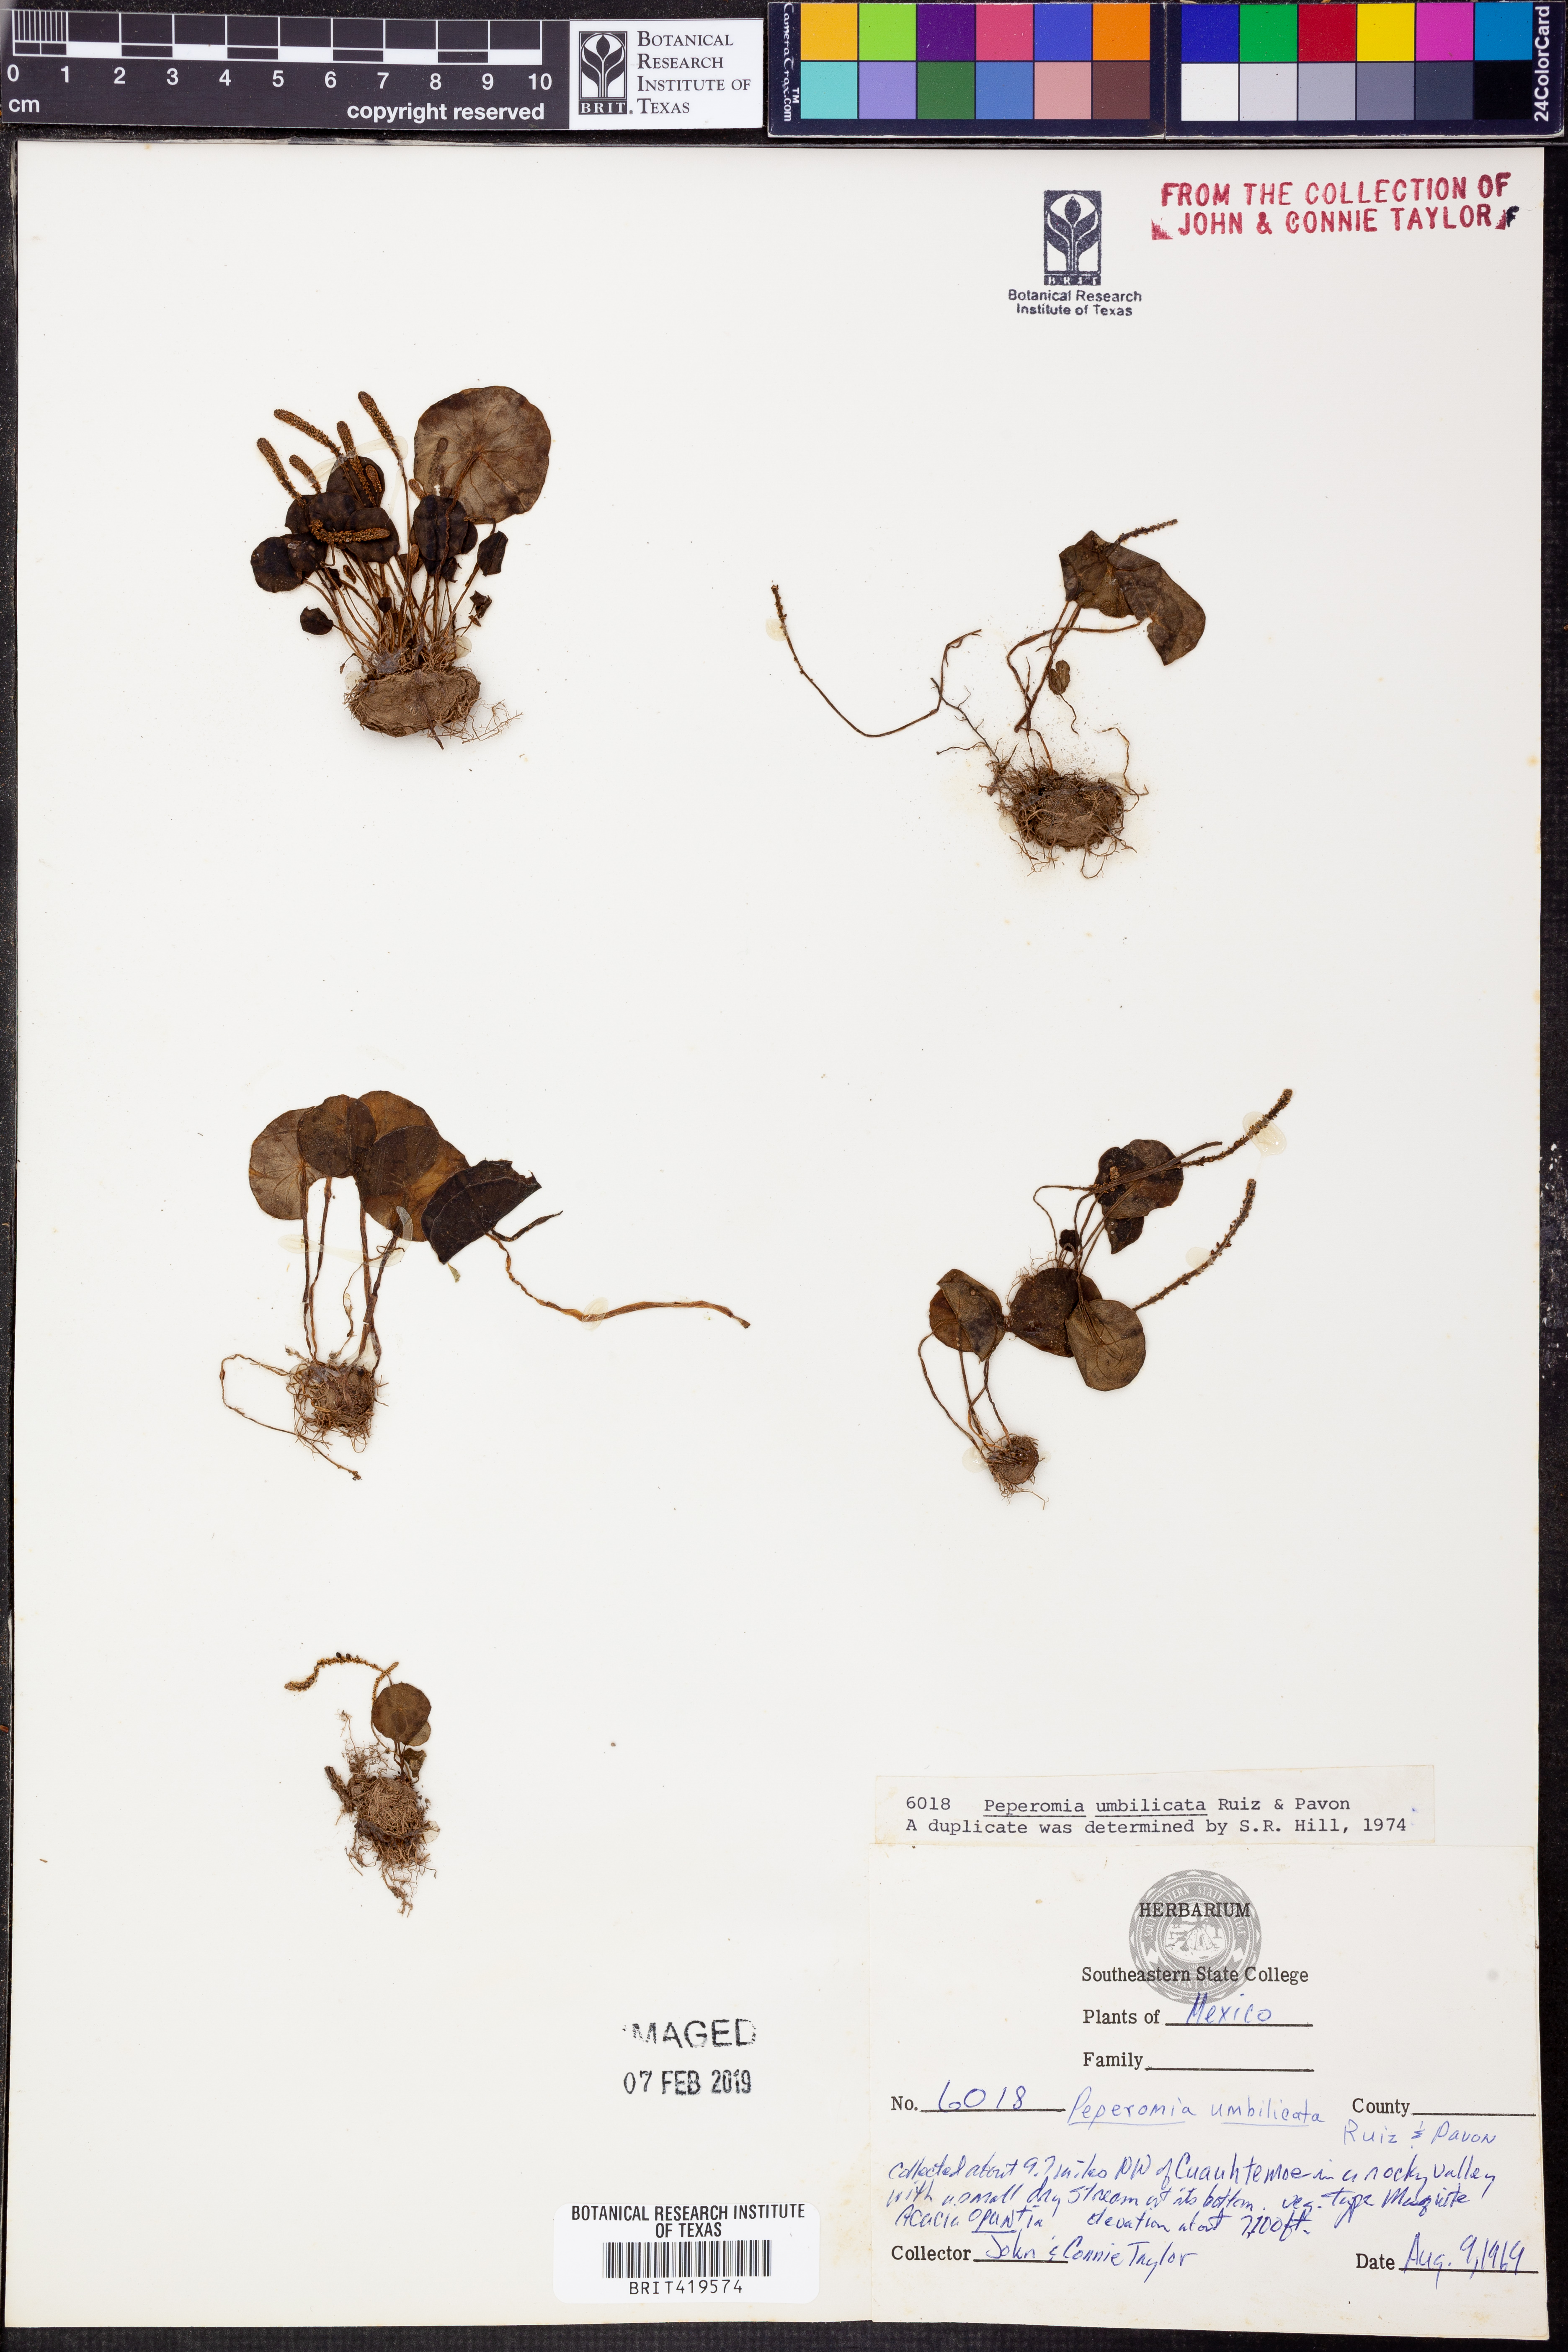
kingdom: Plantae
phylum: Tracheophyta
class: Magnoliopsida
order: Piperales
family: Piperaceae
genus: Peperomia
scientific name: Peperomia umbilicata
